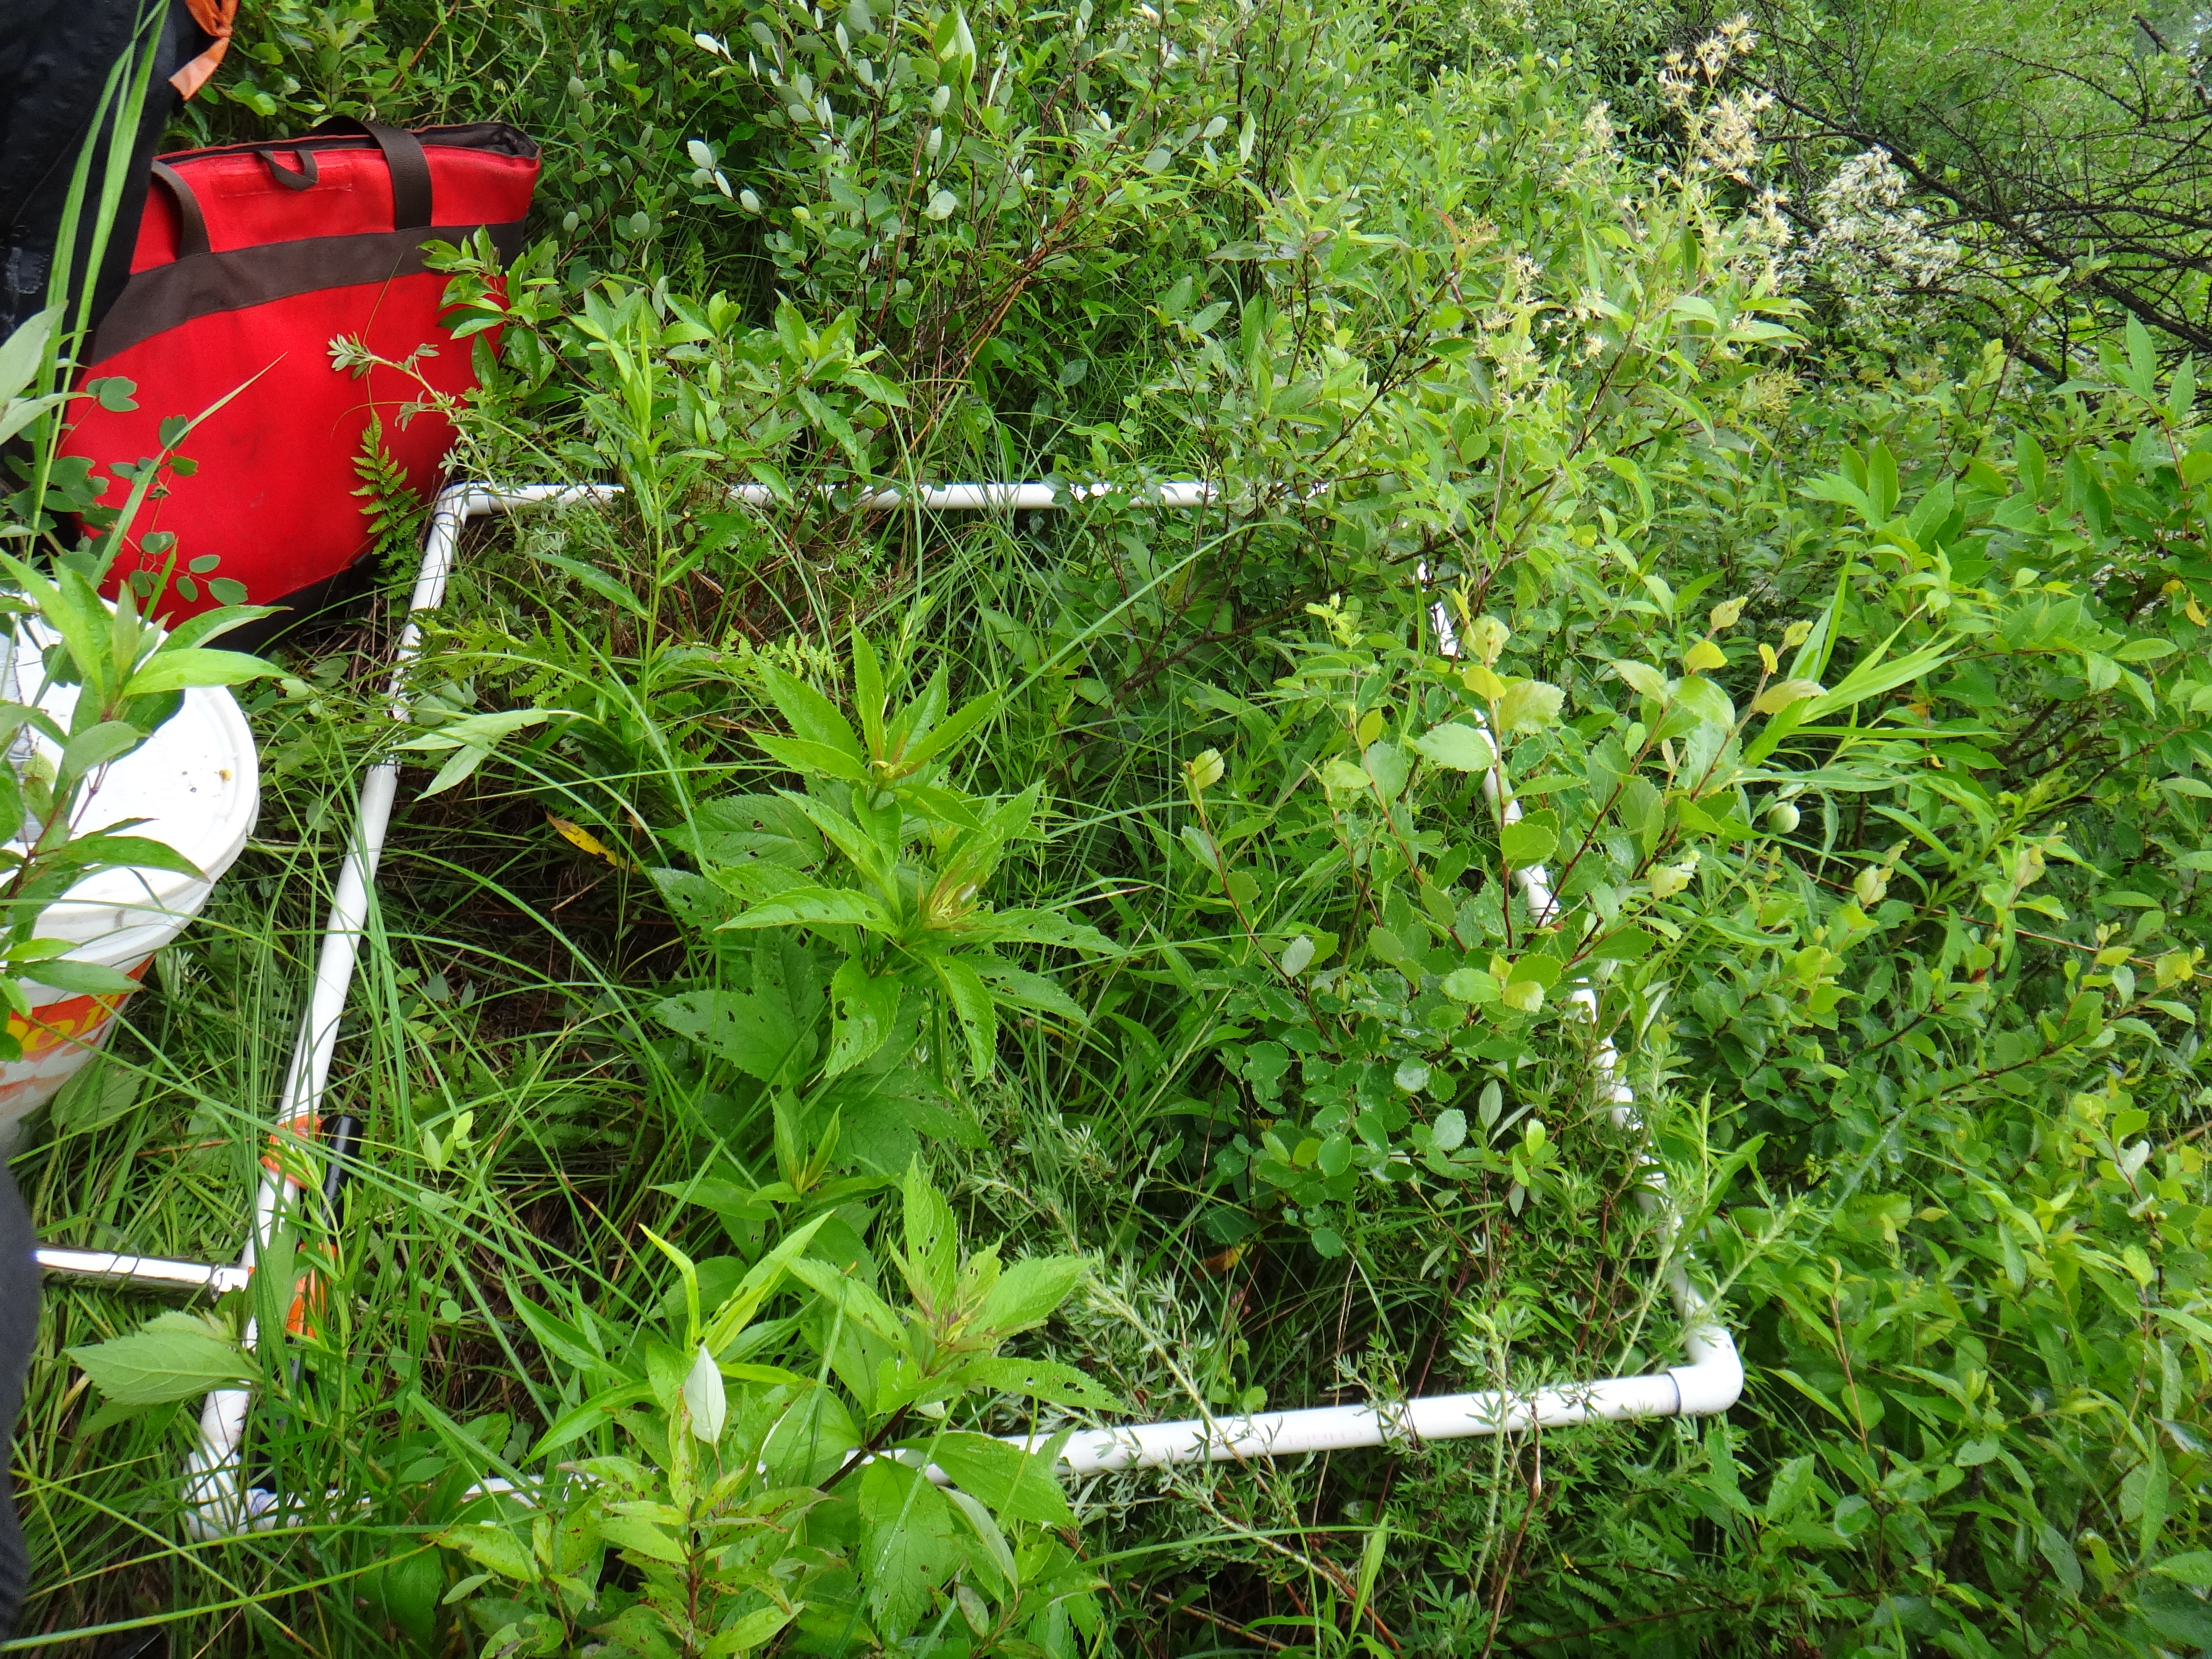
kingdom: Plantae
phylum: Tracheophyta
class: Magnoliopsida
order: Asterales
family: Asteraceae
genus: Solidago
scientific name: Solidago gigantea
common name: Giant goldenrod
